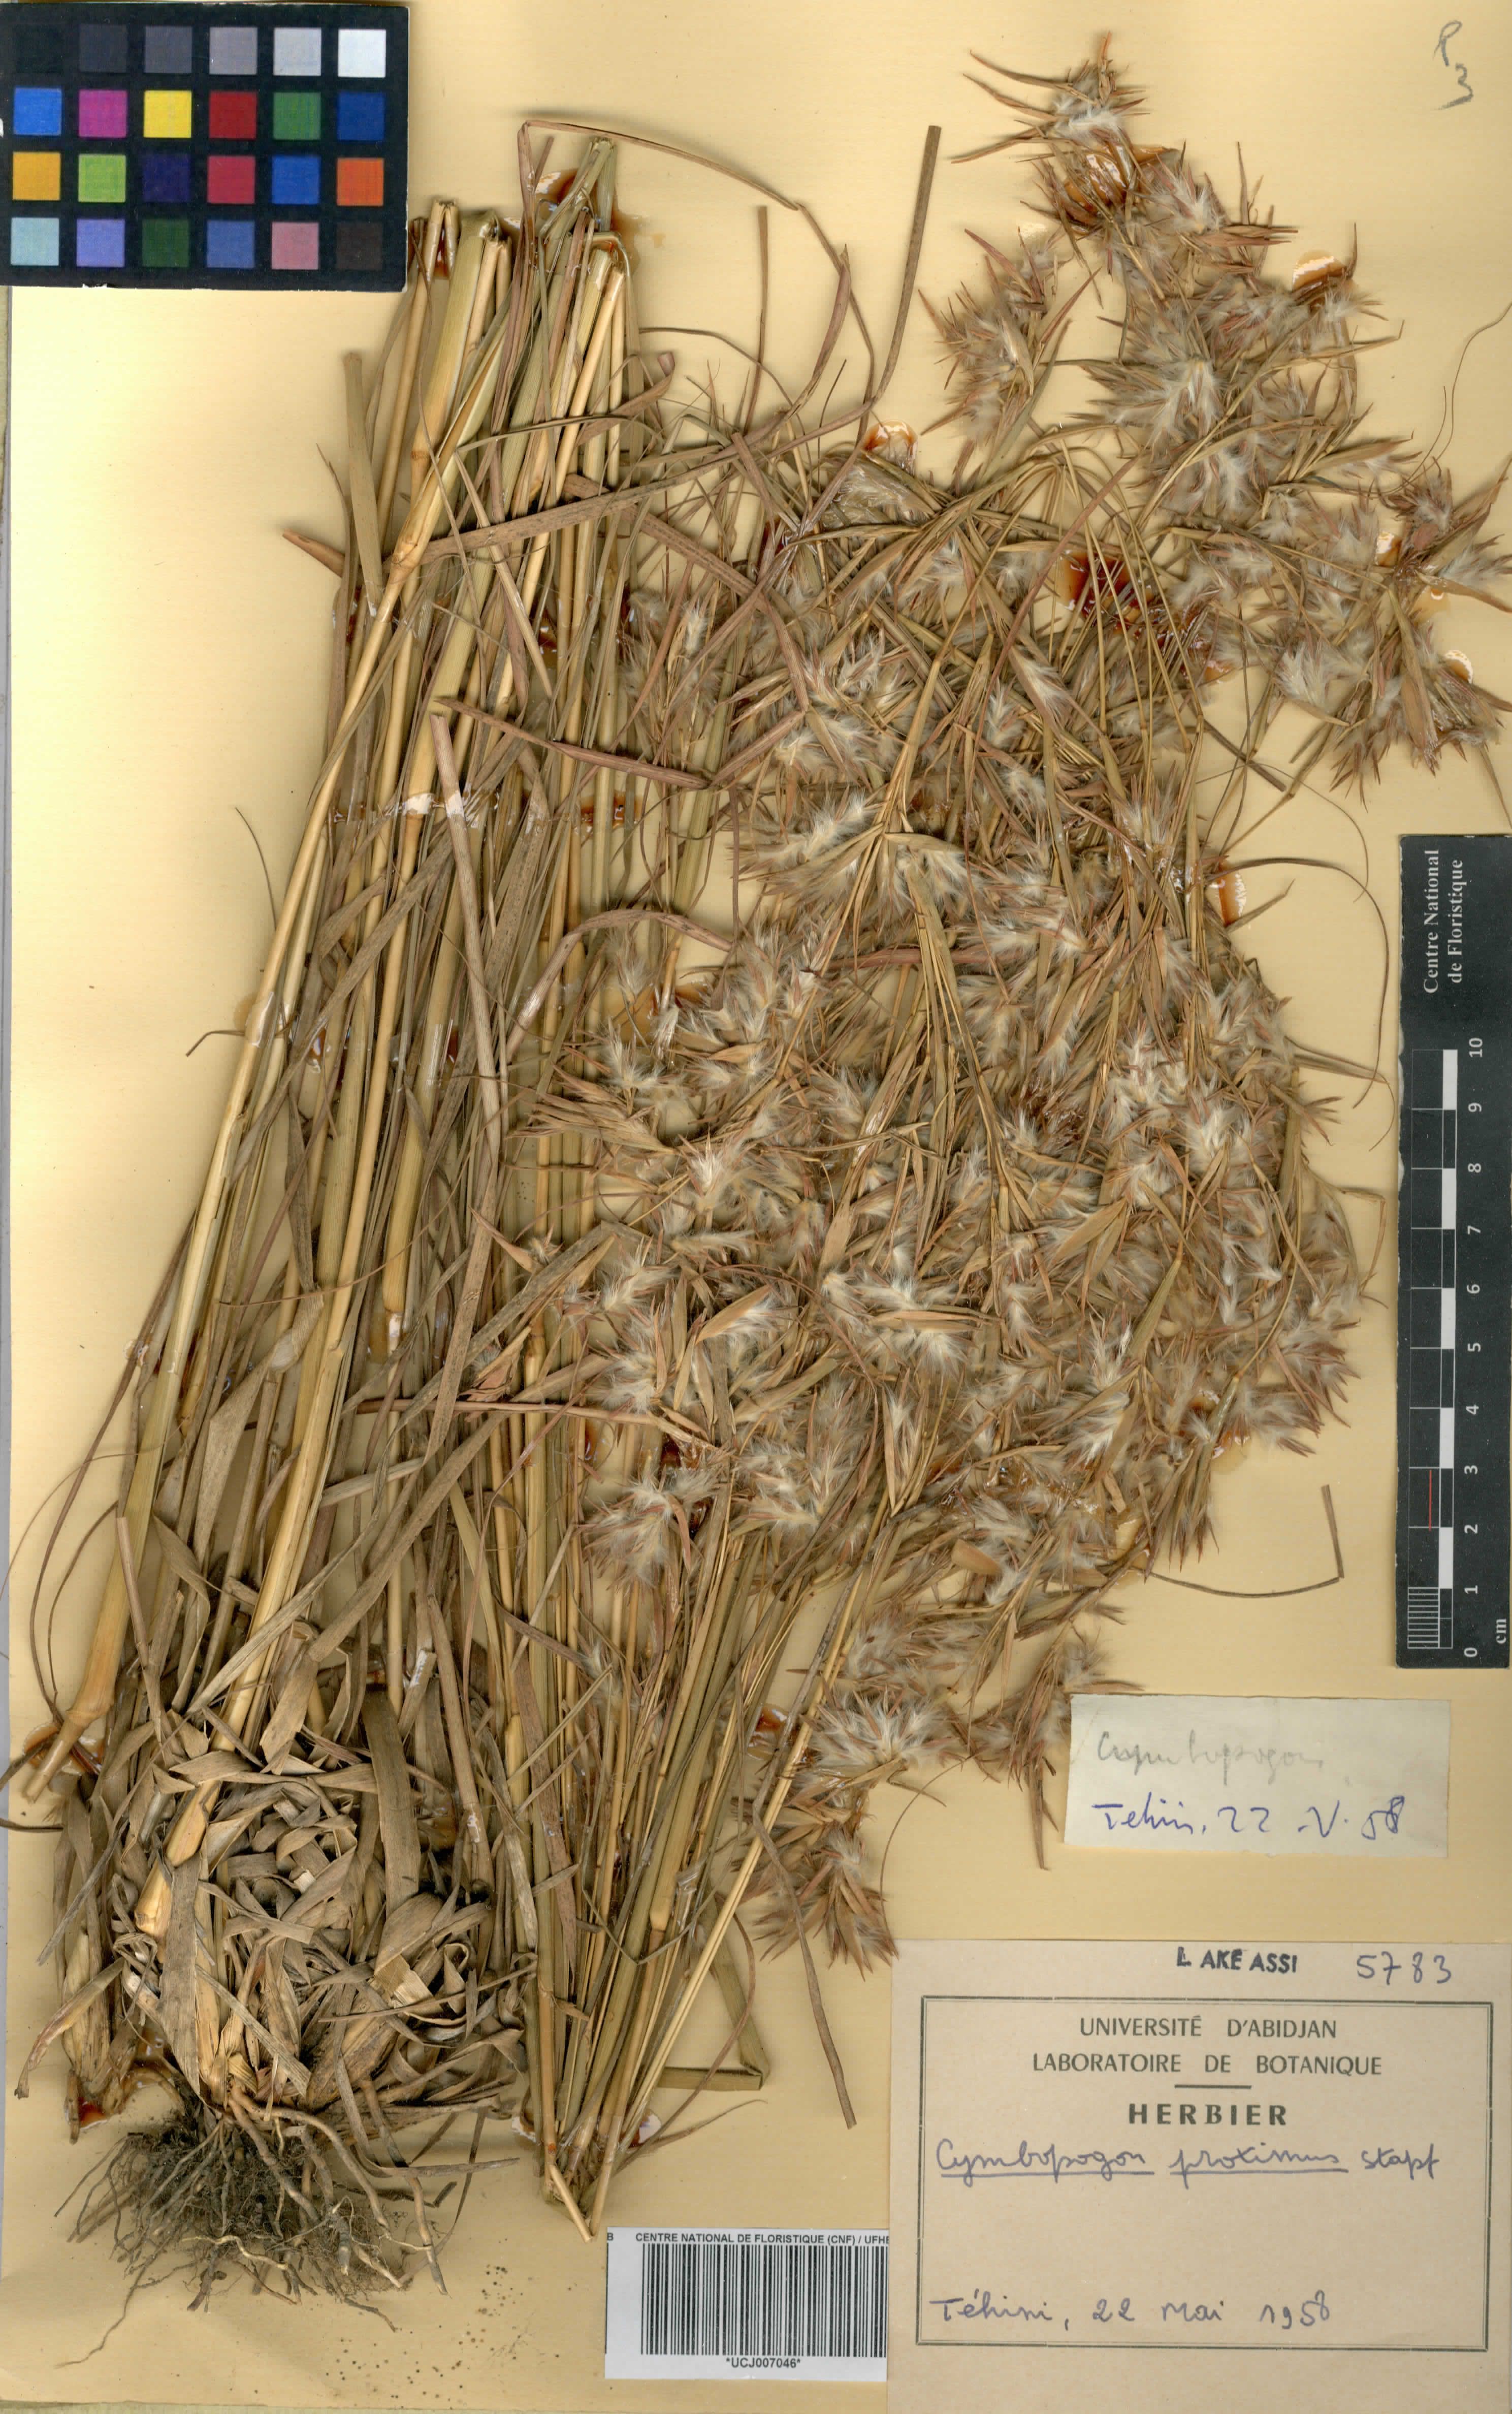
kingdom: Plantae
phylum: Tracheophyta
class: Liliopsida
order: Poales
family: Poaceae
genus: Cymbopogon
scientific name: Cymbopogon schoenanthus
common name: Geranium grass
